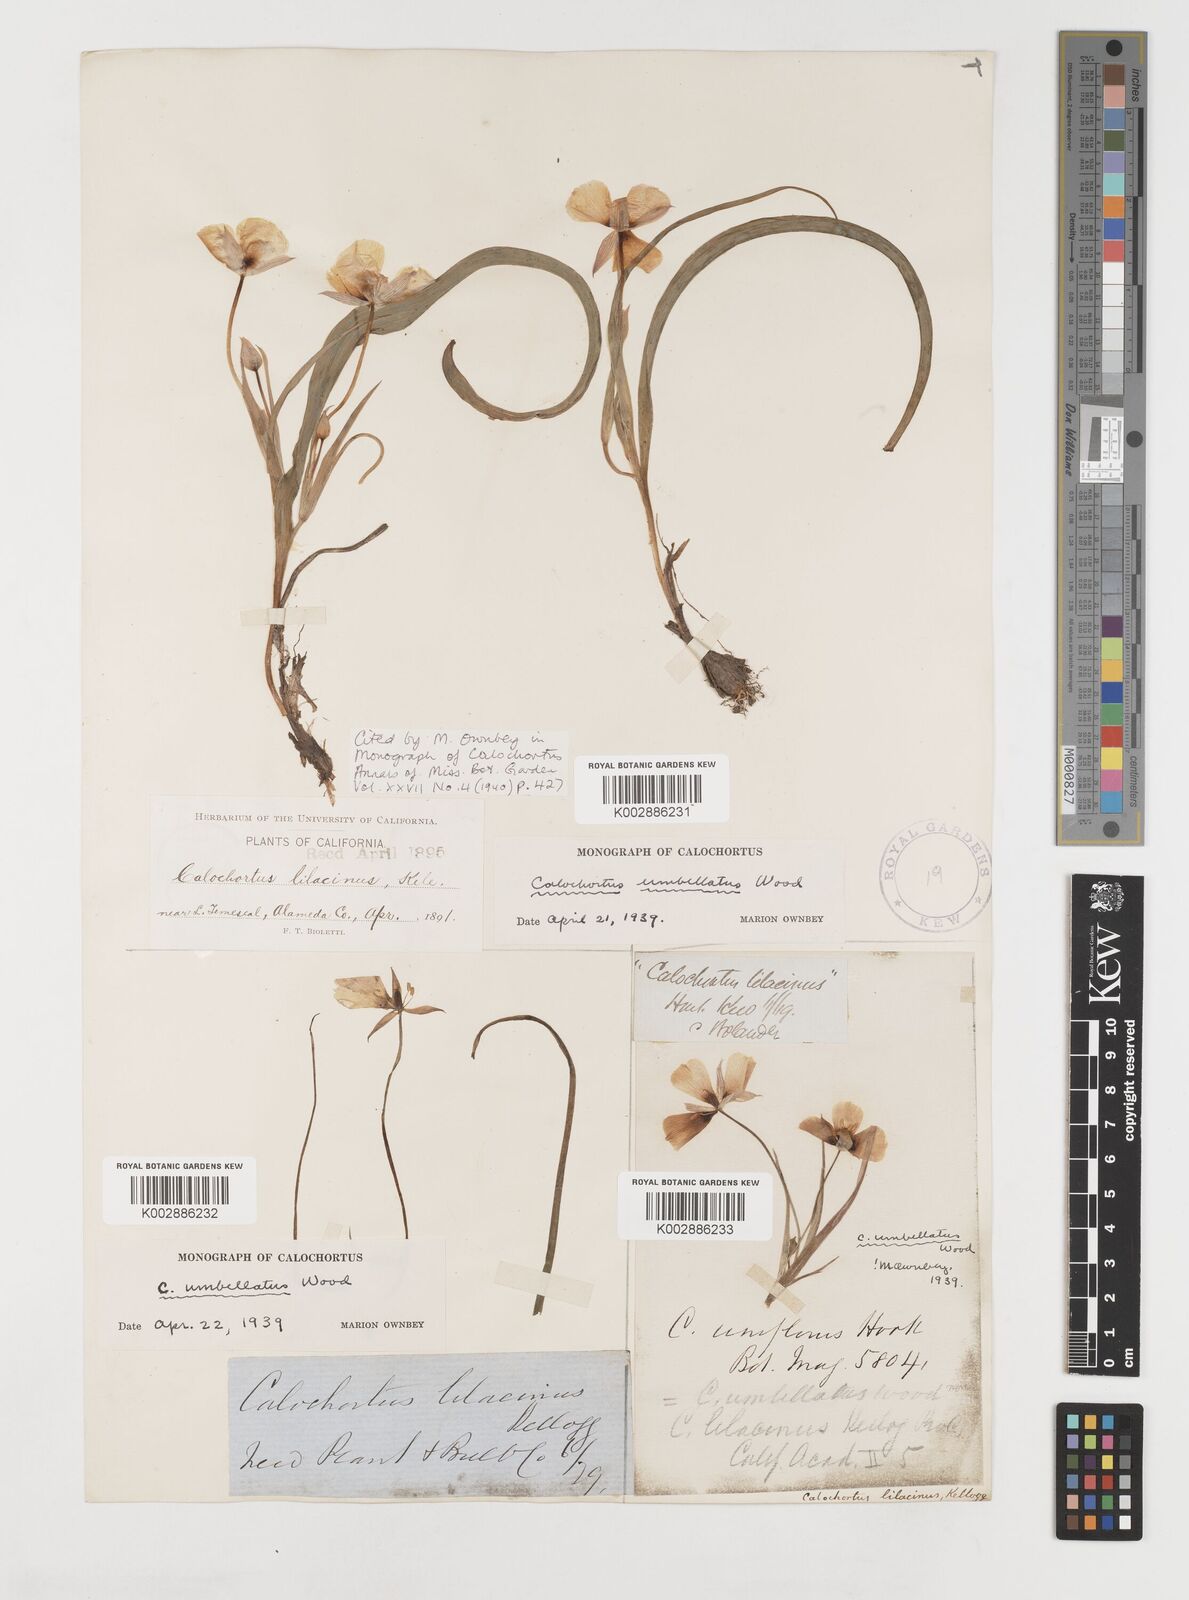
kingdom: Plantae
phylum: Tracheophyta
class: Liliopsida
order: Liliales
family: Liliaceae
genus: Calochortus
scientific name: Calochortus umbellatus
